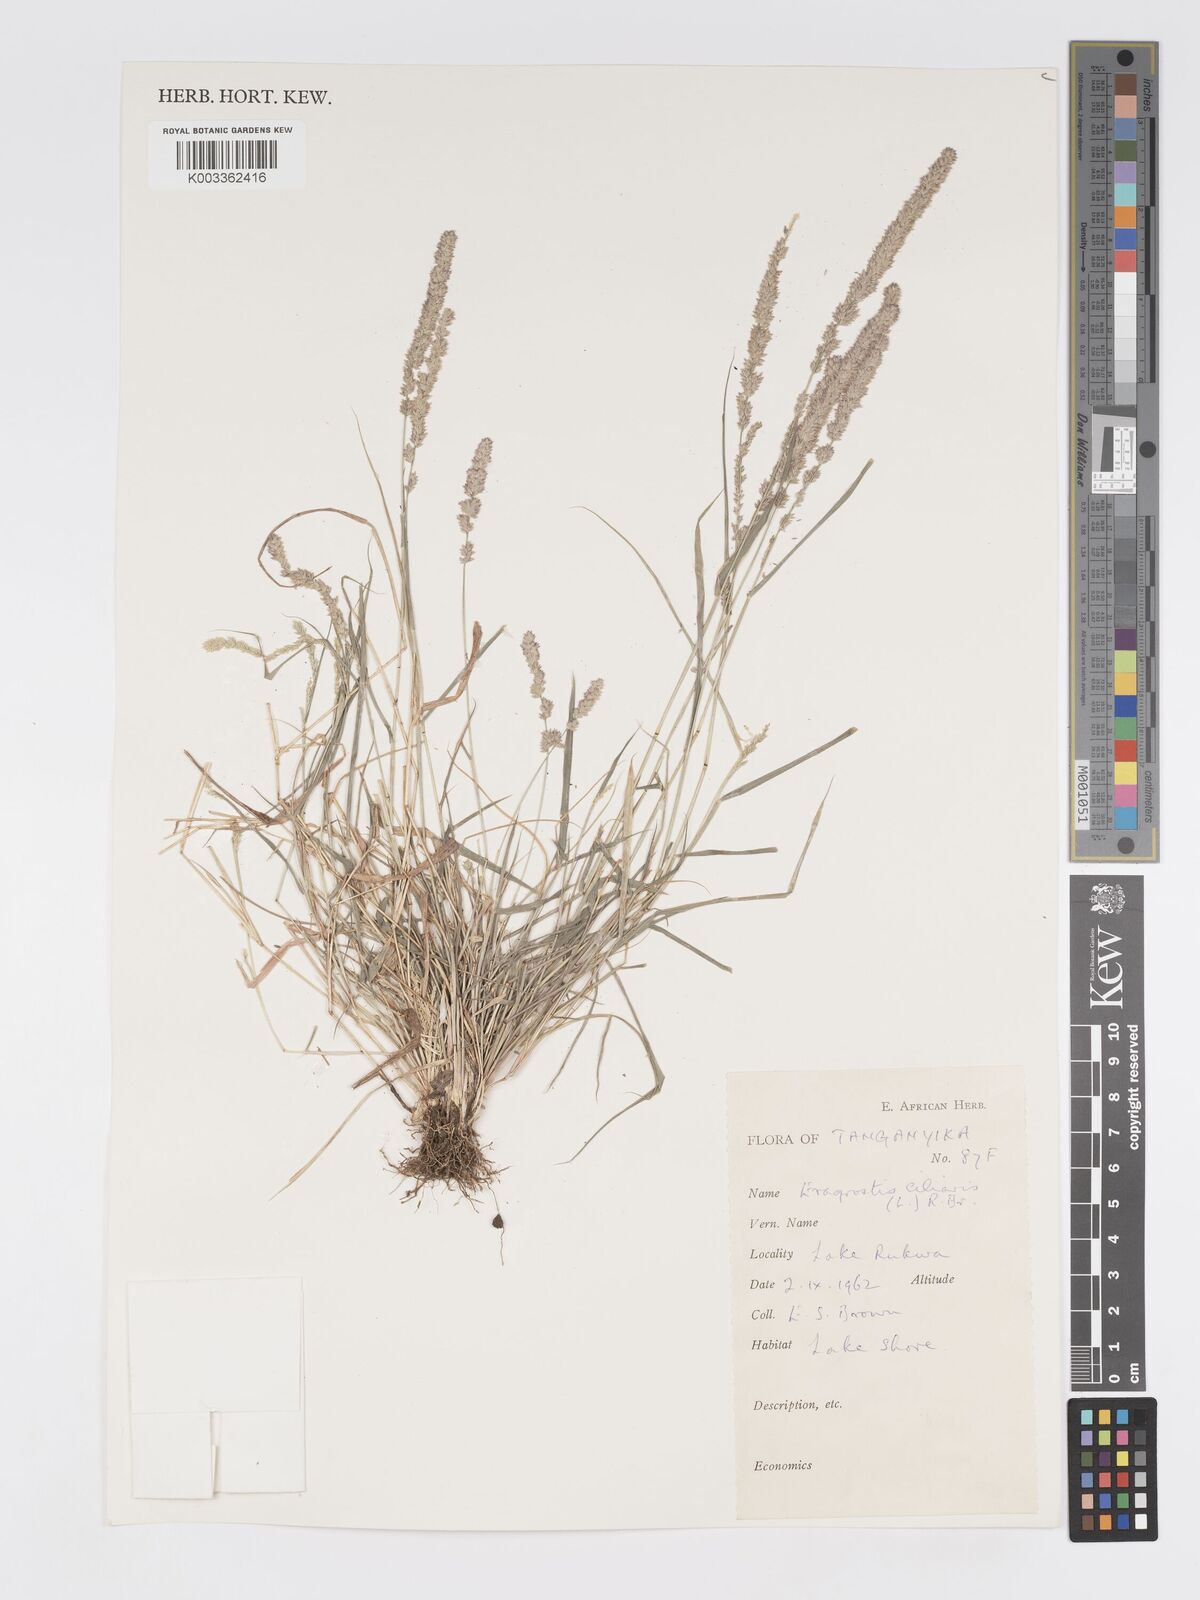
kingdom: Plantae
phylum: Tracheophyta
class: Liliopsida
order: Poales
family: Poaceae
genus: Eragrostis
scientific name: Eragrostis ciliaris
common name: Gophertail lovegrass
